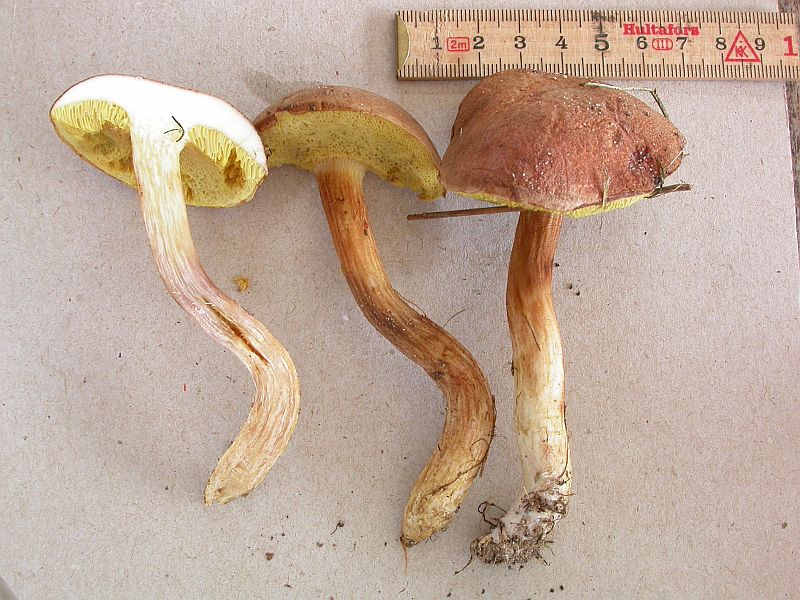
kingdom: Fungi
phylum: Basidiomycota
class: Agaricomycetes
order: Boletales
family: Boletaceae
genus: Xerocomus
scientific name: Xerocomus ferrugineus
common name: vaskeskinds-rørhat
